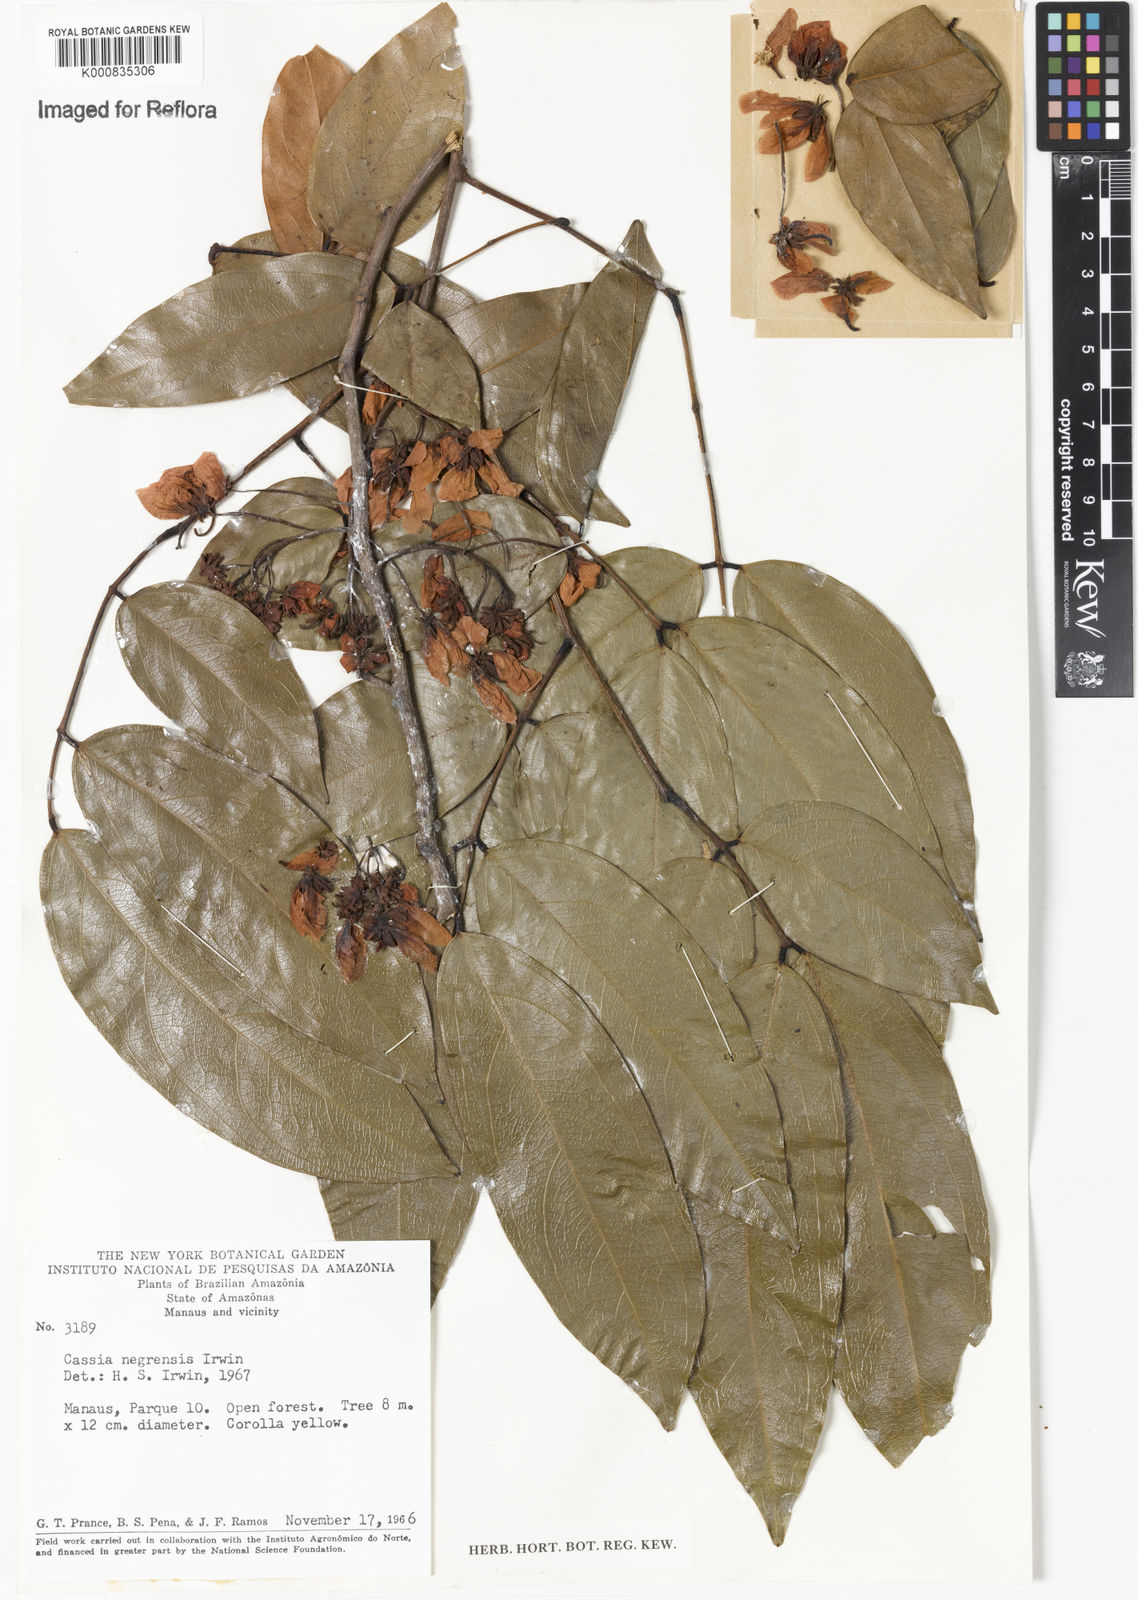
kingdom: Plantae
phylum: Tracheophyta
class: Magnoliopsida
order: Fabales
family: Fabaceae
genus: Chamaecrista
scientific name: Chamaecrista negrensis
